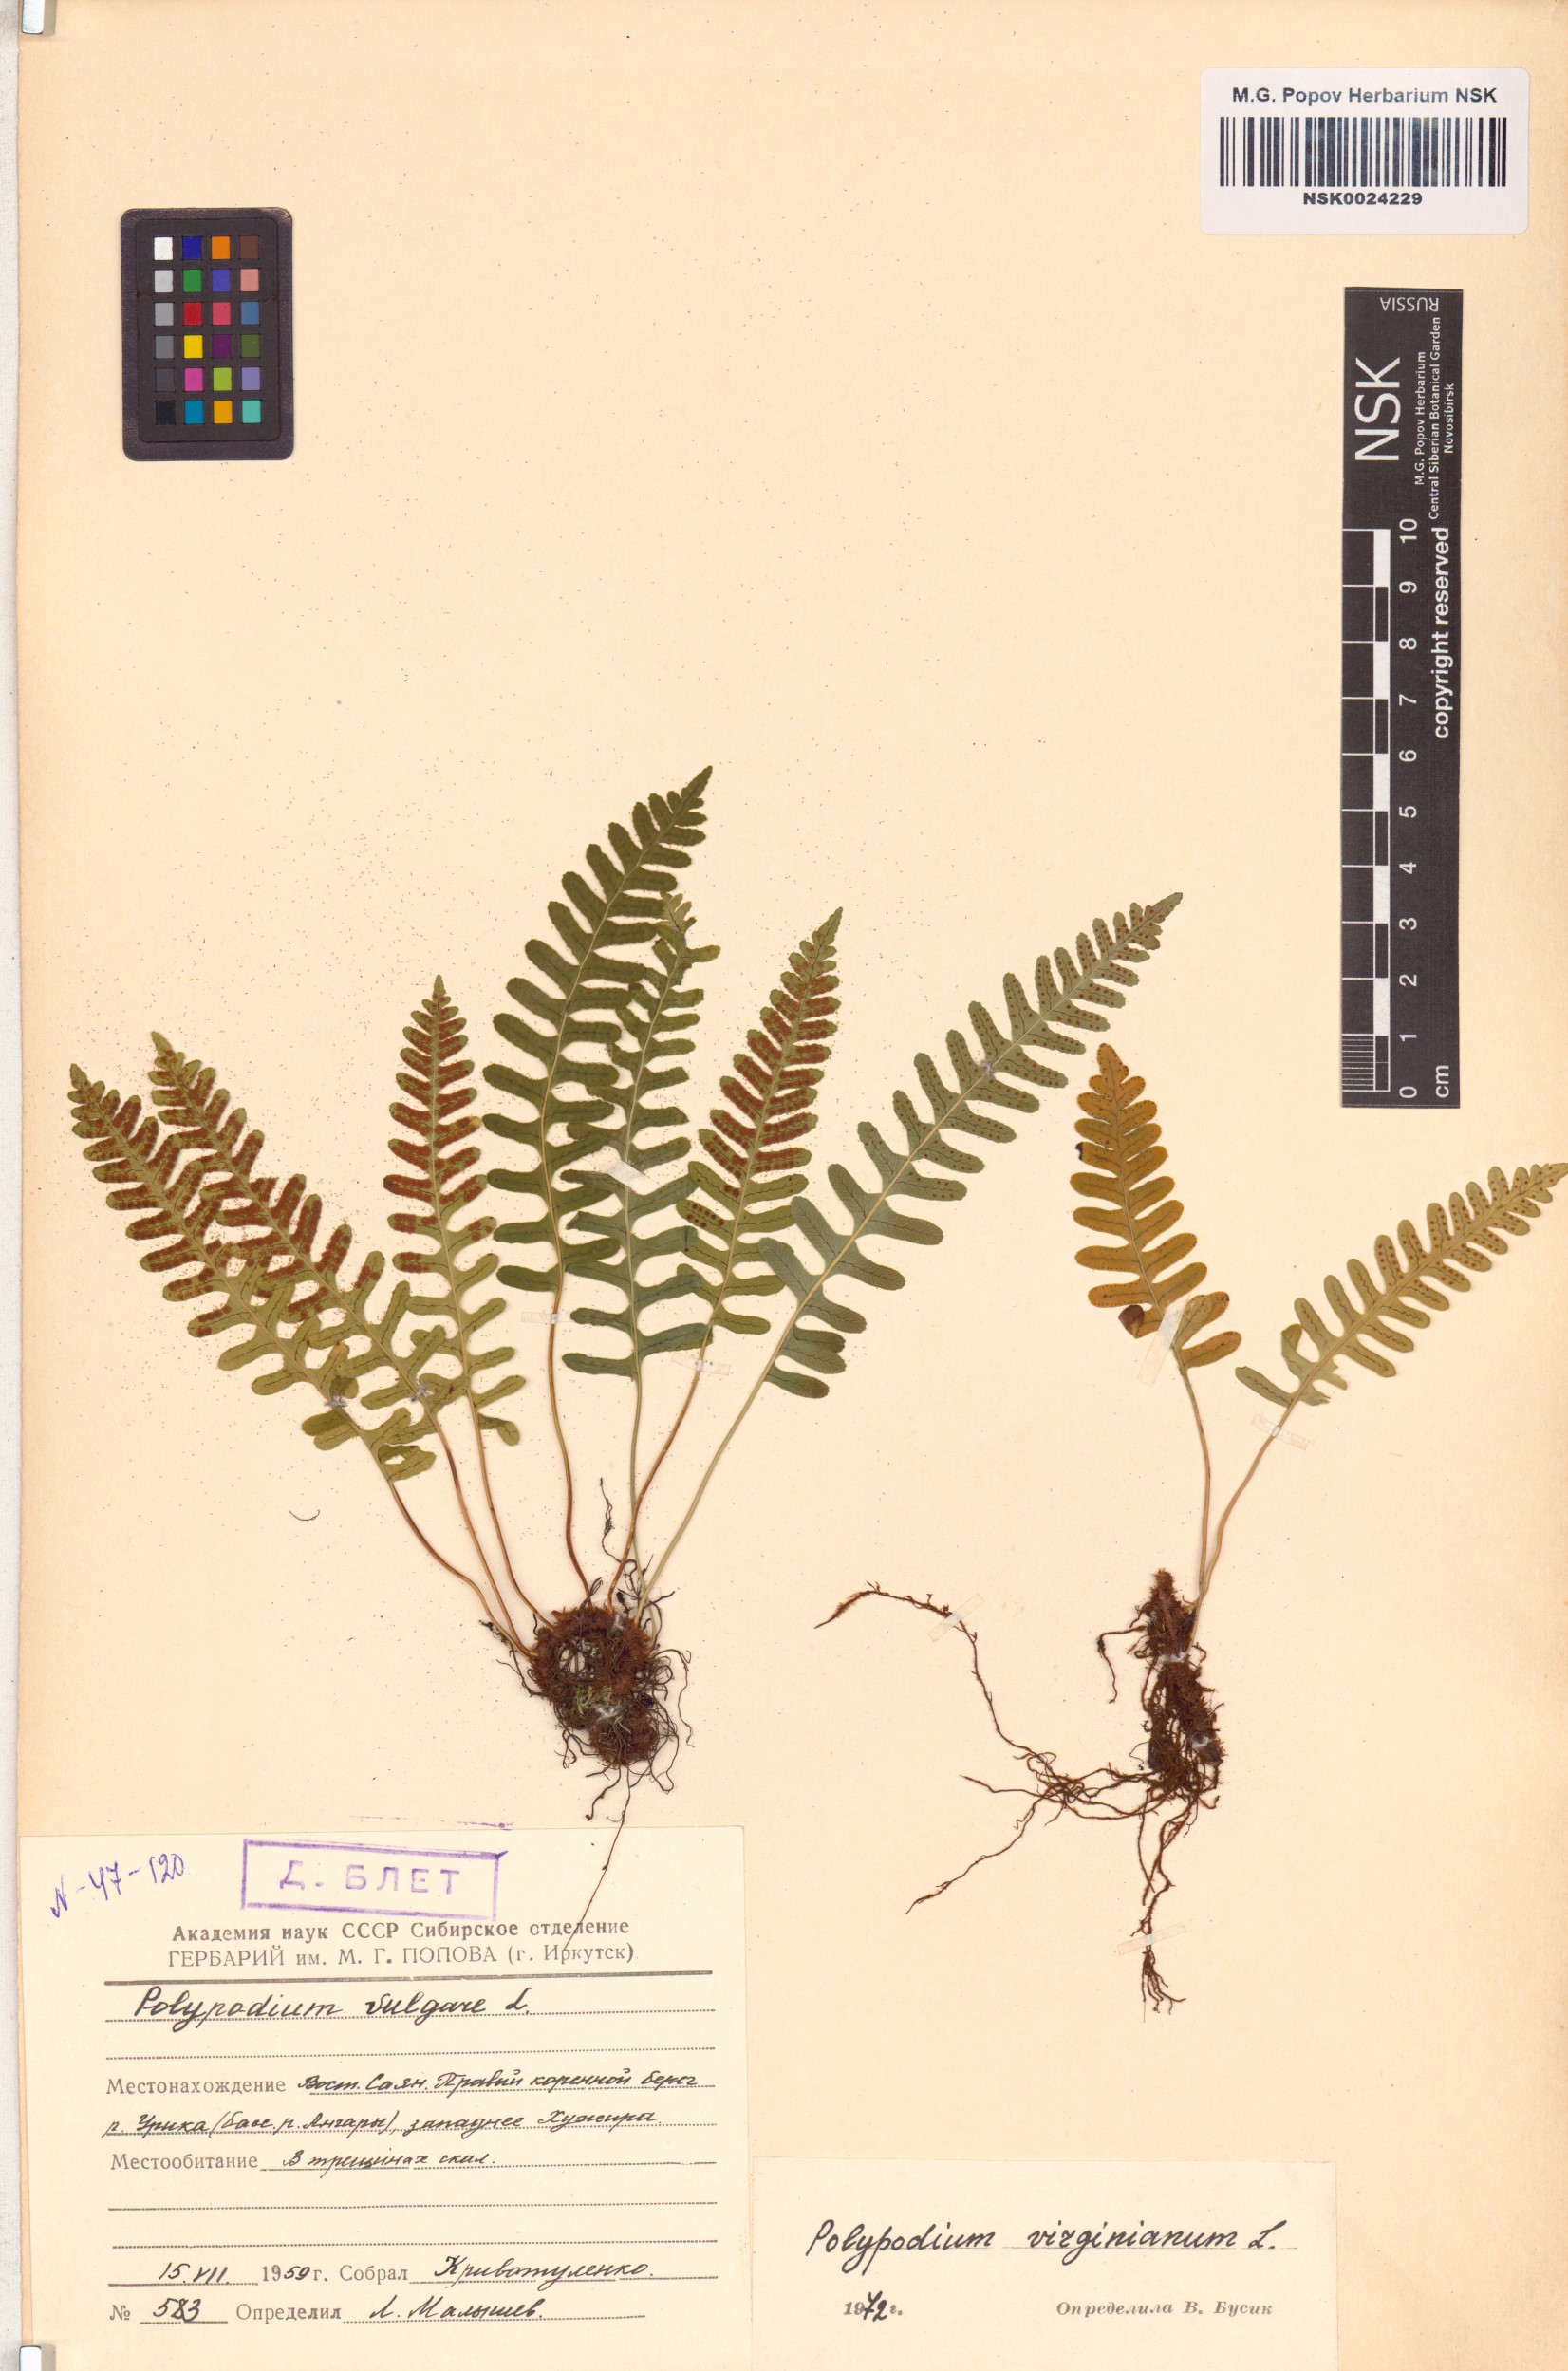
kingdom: Plantae
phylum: Tracheophyta
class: Polypodiopsida
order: Polypodiales
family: Polypodiaceae
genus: Polypodium
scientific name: Polypodium virginianum
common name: American wall fern
